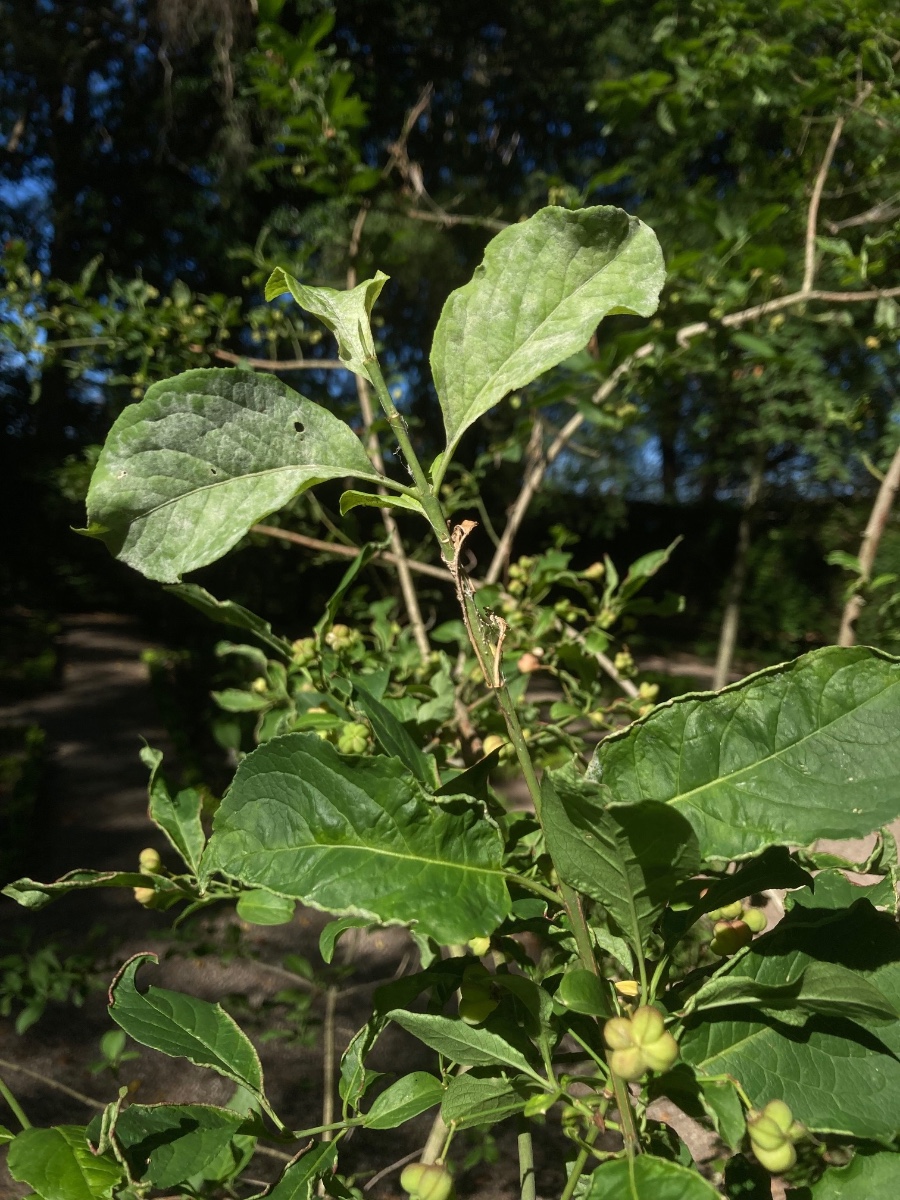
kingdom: Fungi
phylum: Ascomycota
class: Leotiomycetes
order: Helotiales
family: Erysiphaceae
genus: Erysiphe
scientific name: Erysiphe euonymi
